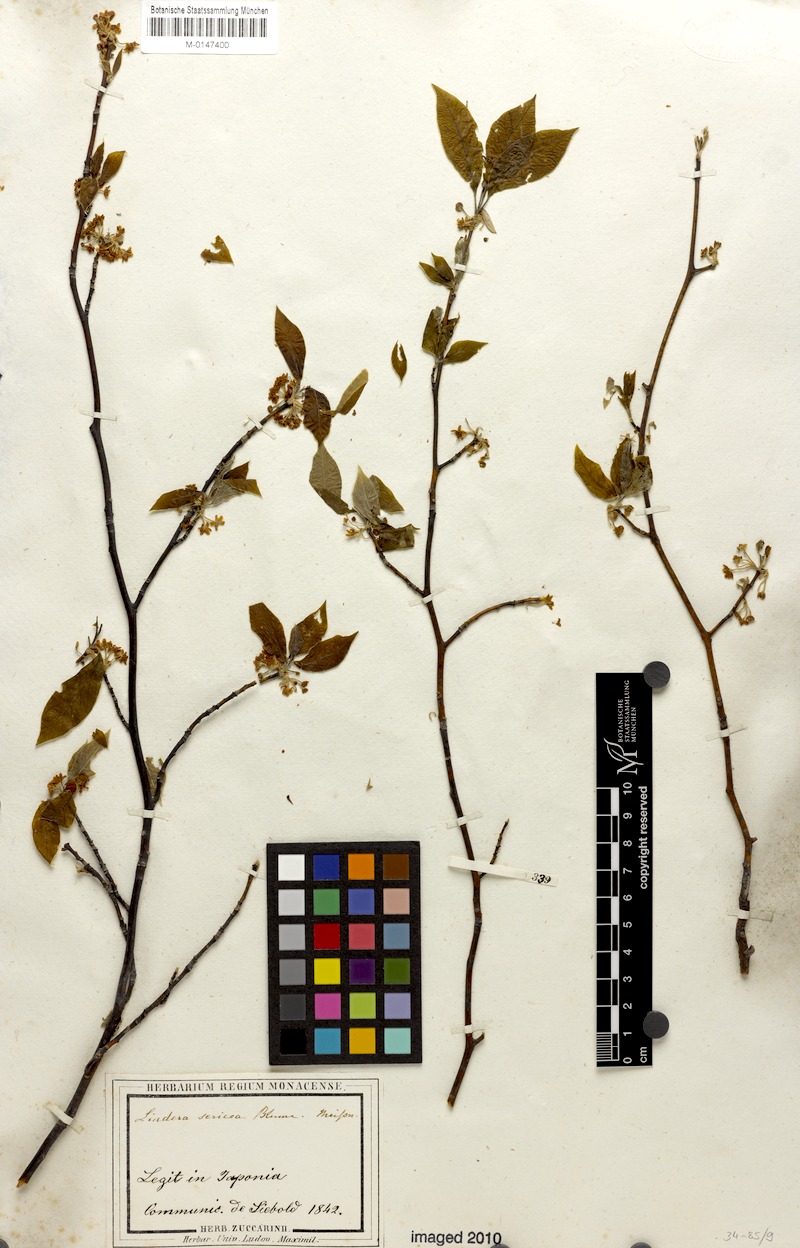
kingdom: Plantae
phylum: Tracheophyta
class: Magnoliopsida
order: Laurales
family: Lauraceae
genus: Lindera
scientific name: Lindera sericea
